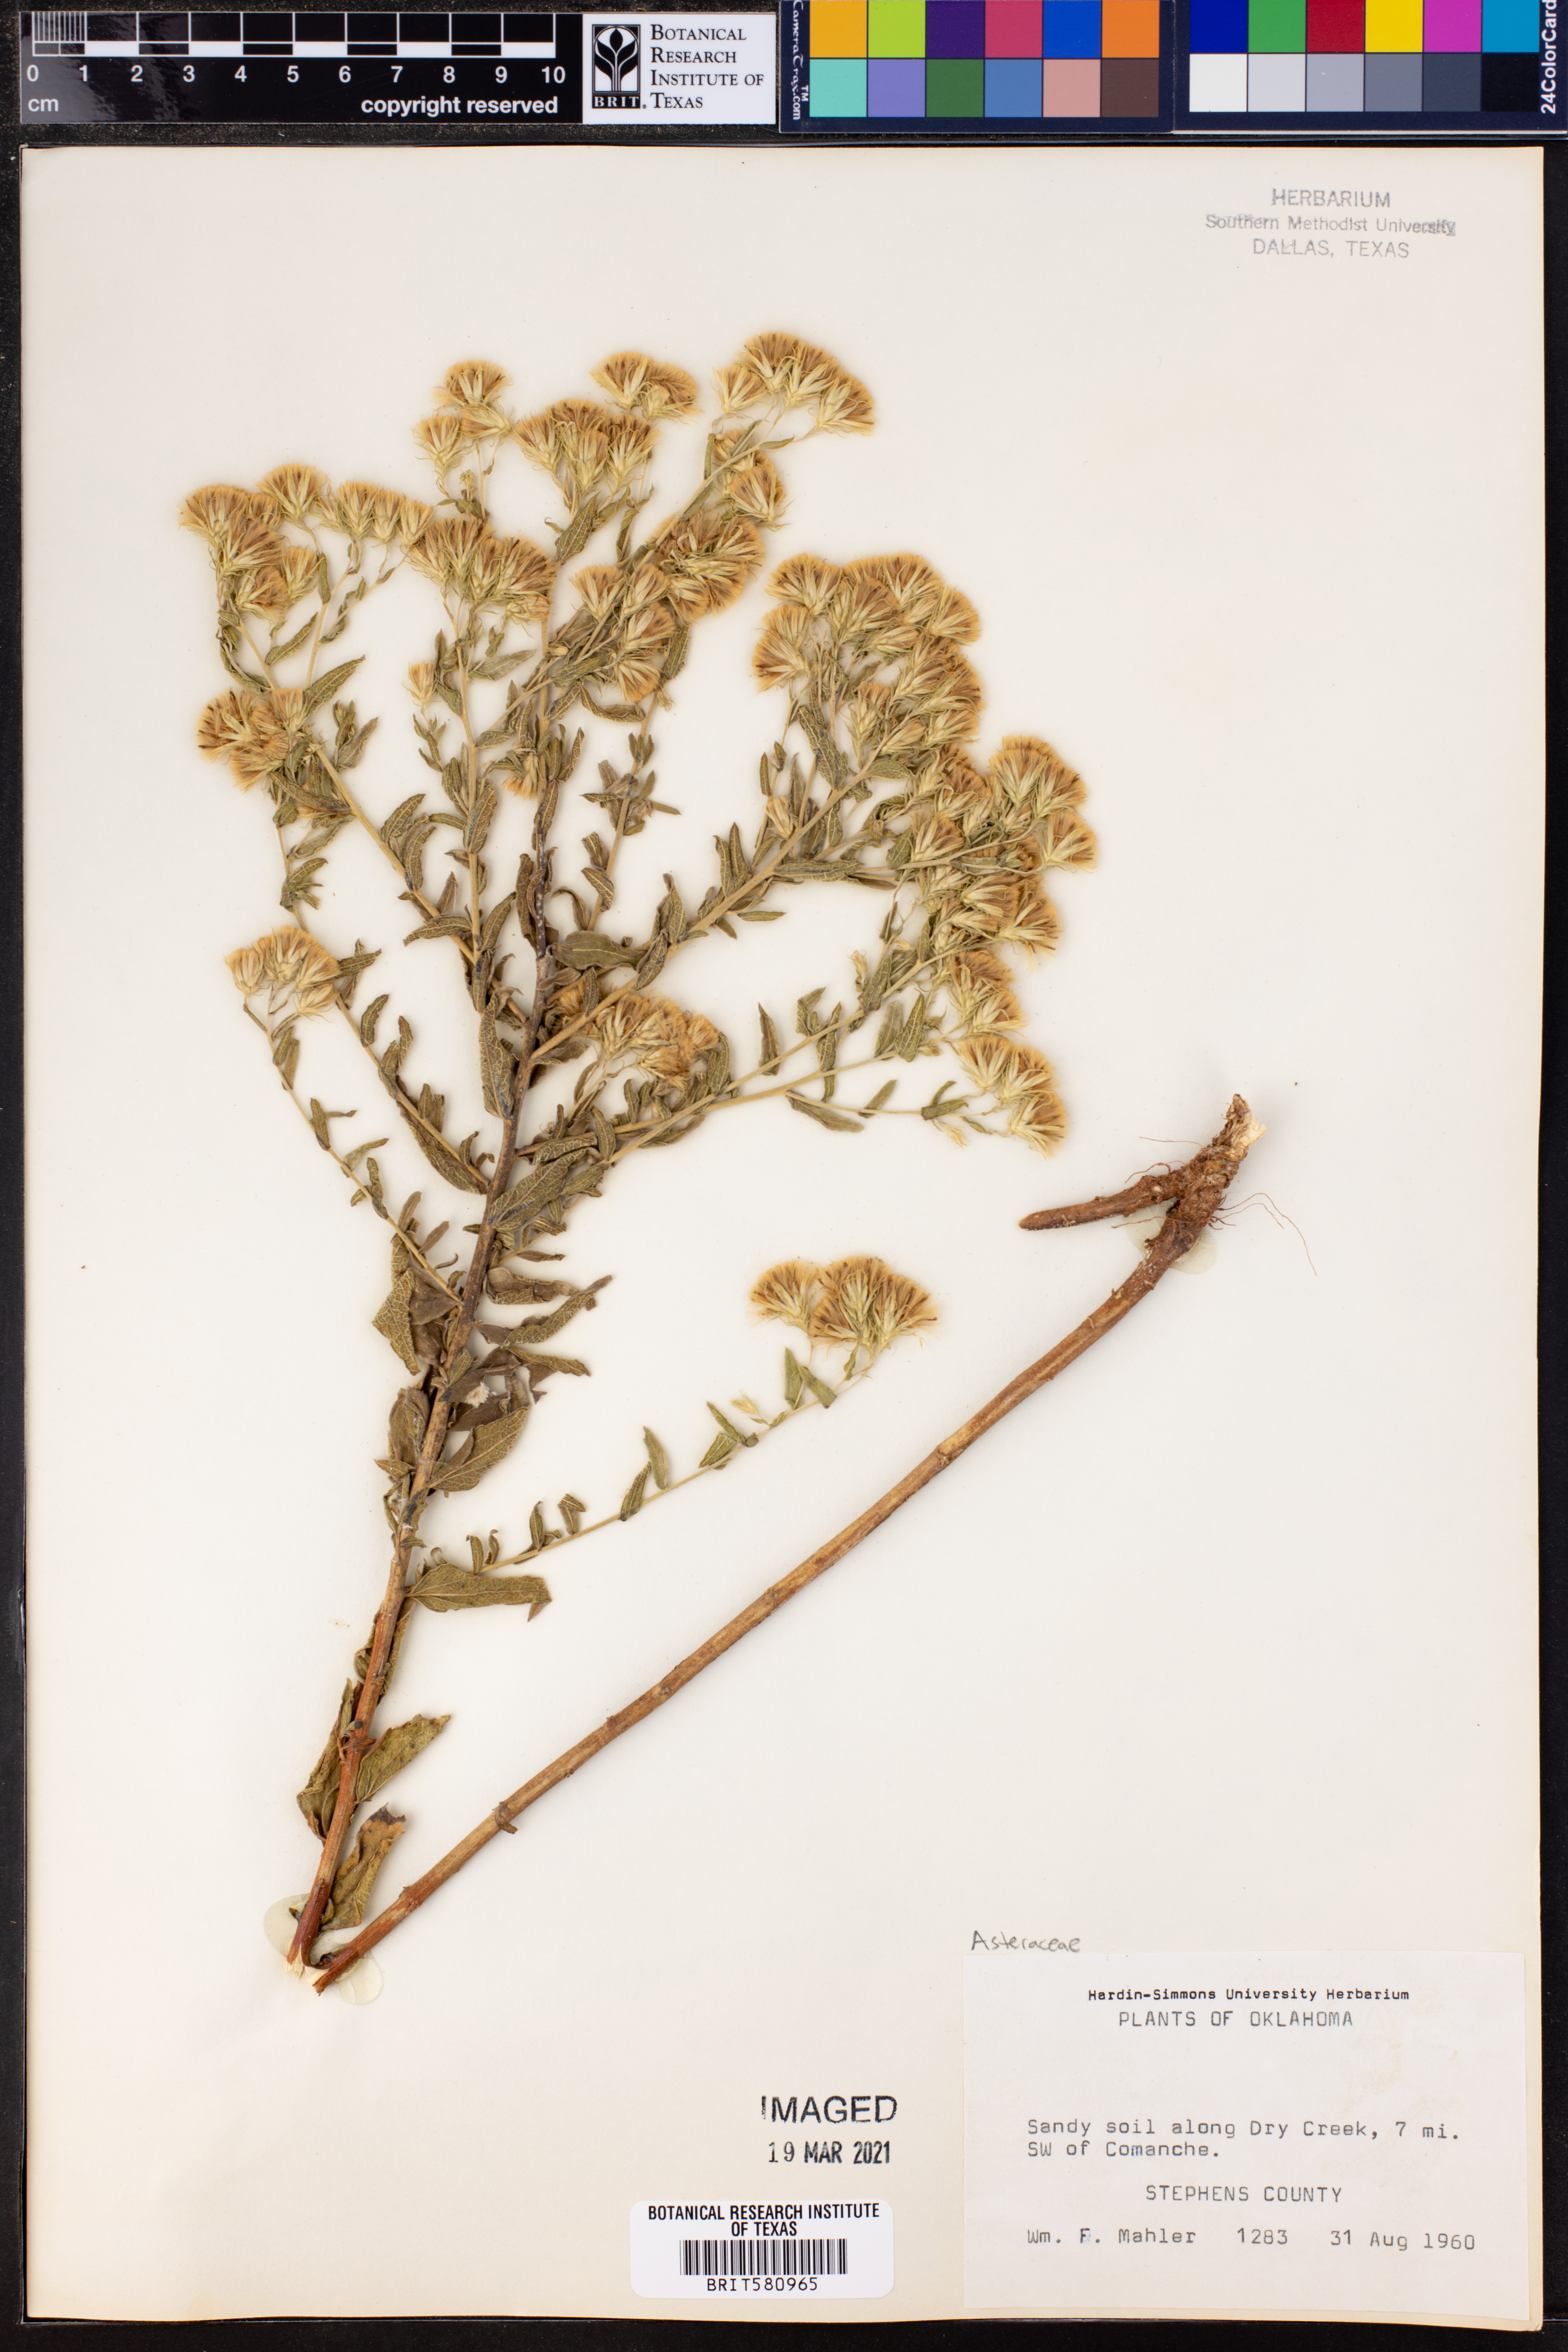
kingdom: Plantae
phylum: Tracheophyta
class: Magnoliopsida
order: Asterales
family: Asteraceae
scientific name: Asteraceae
